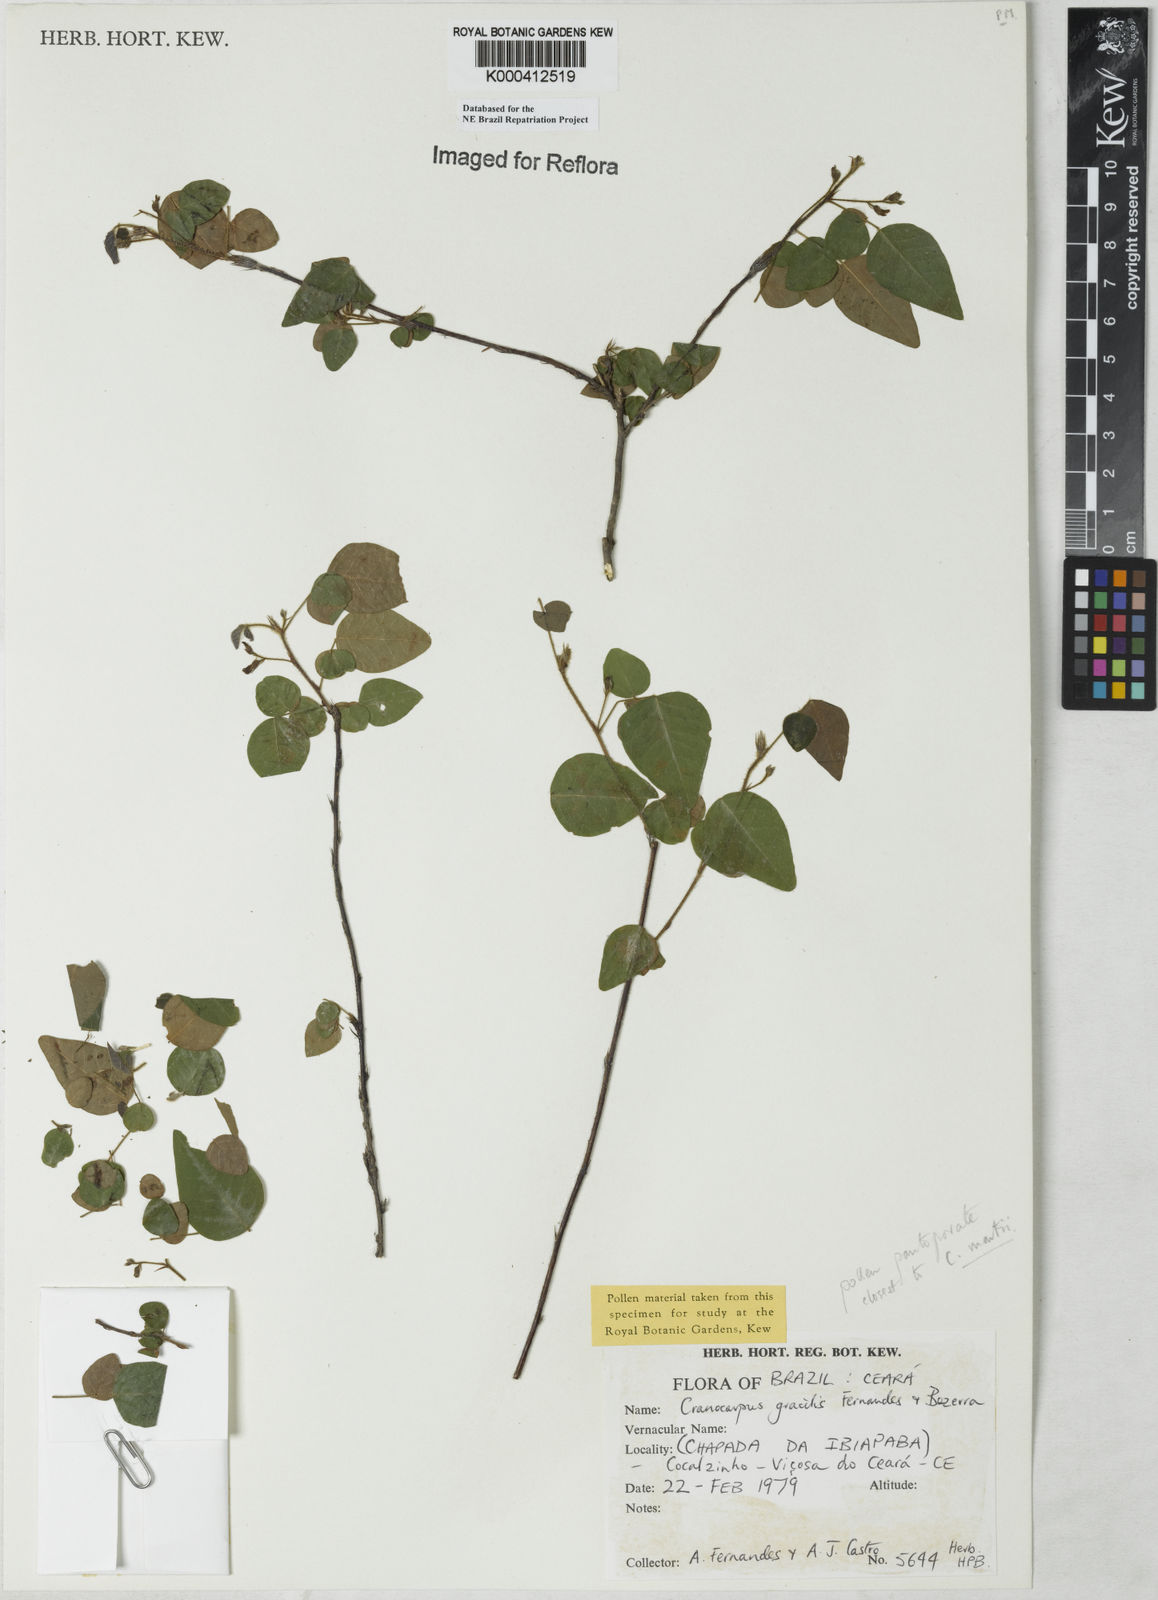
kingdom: Plantae
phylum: Tracheophyta
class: Magnoliopsida
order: Fabales
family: Fabaceae
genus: Cranocarpus
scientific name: Cranocarpus gracilis
